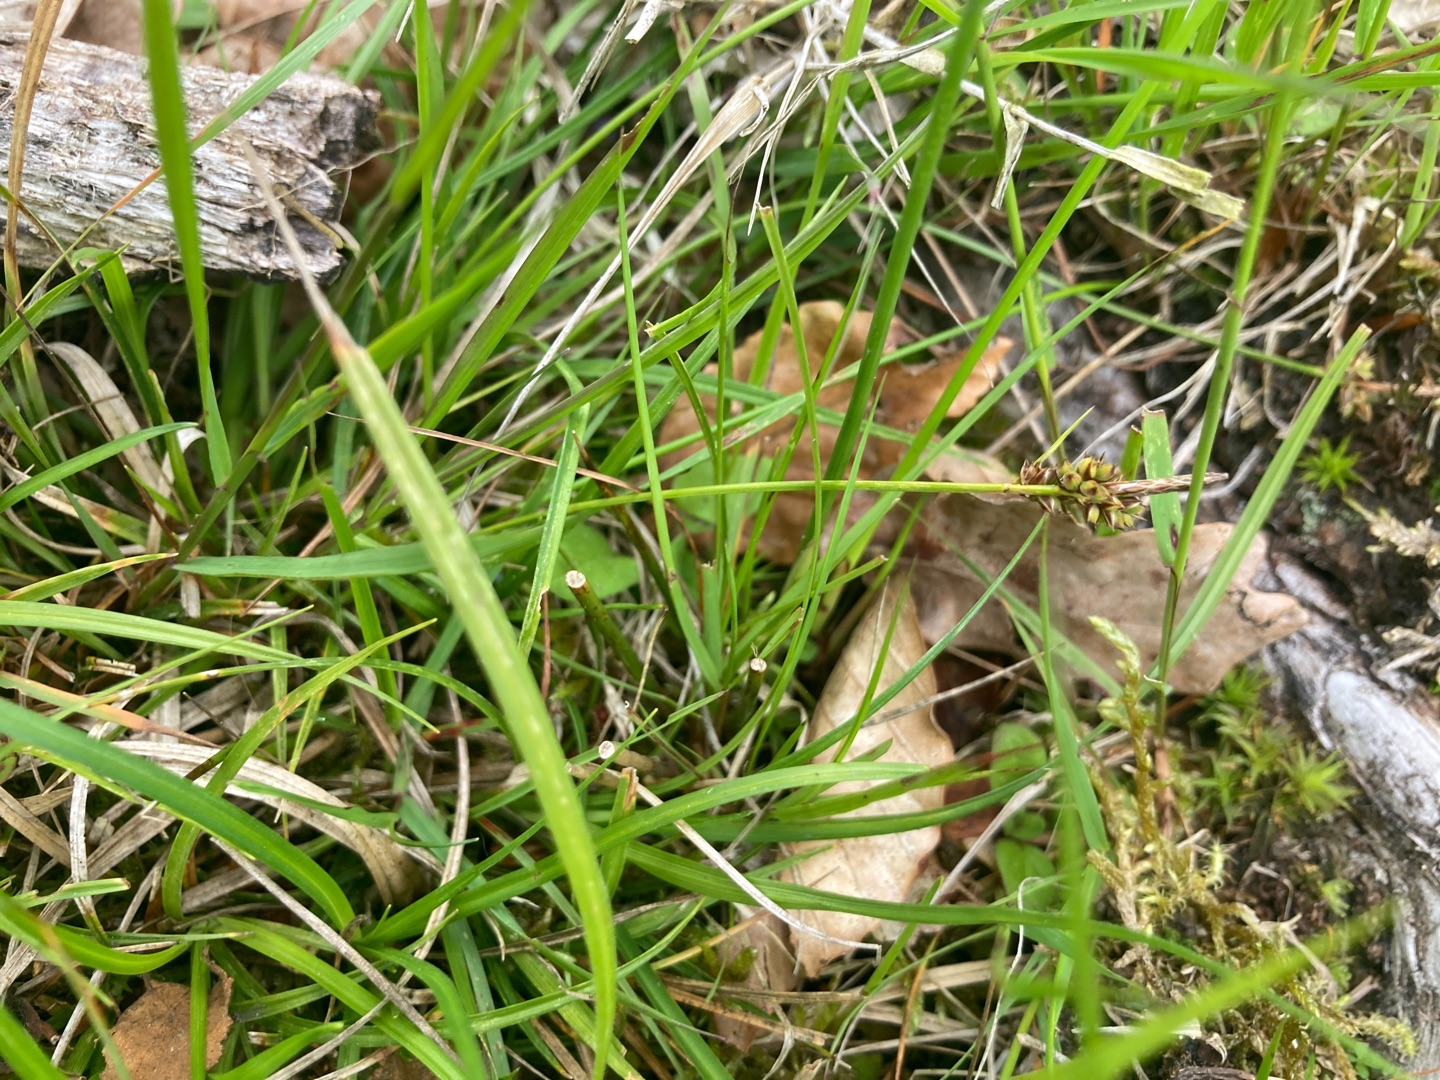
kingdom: Plantae
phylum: Tracheophyta
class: Liliopsida
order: Poales
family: Cyperaceae
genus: Carex
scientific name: Carex pilulifera
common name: Pille-star
